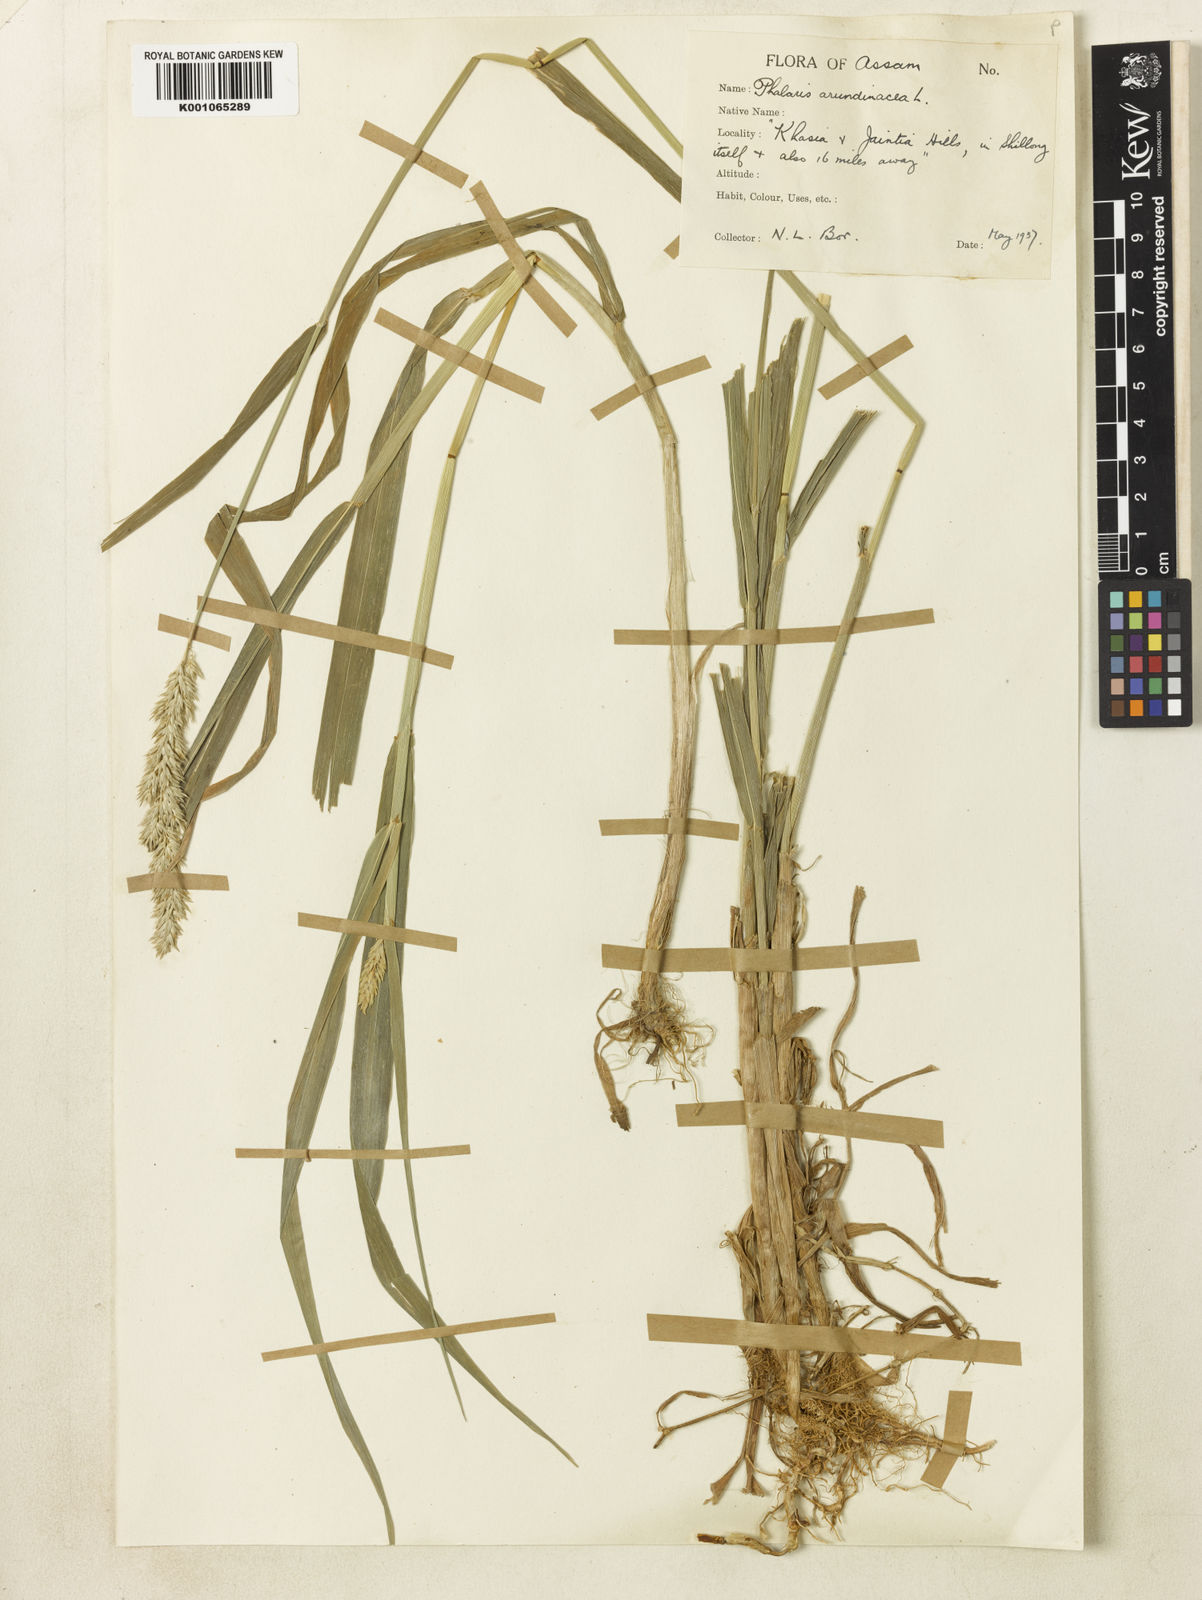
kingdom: Plantae
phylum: Tracheophyta
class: Liliopsida
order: Poales
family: Poaceae
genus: Phalaris
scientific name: Phalaris arundinacea
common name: Reed canary-grass
